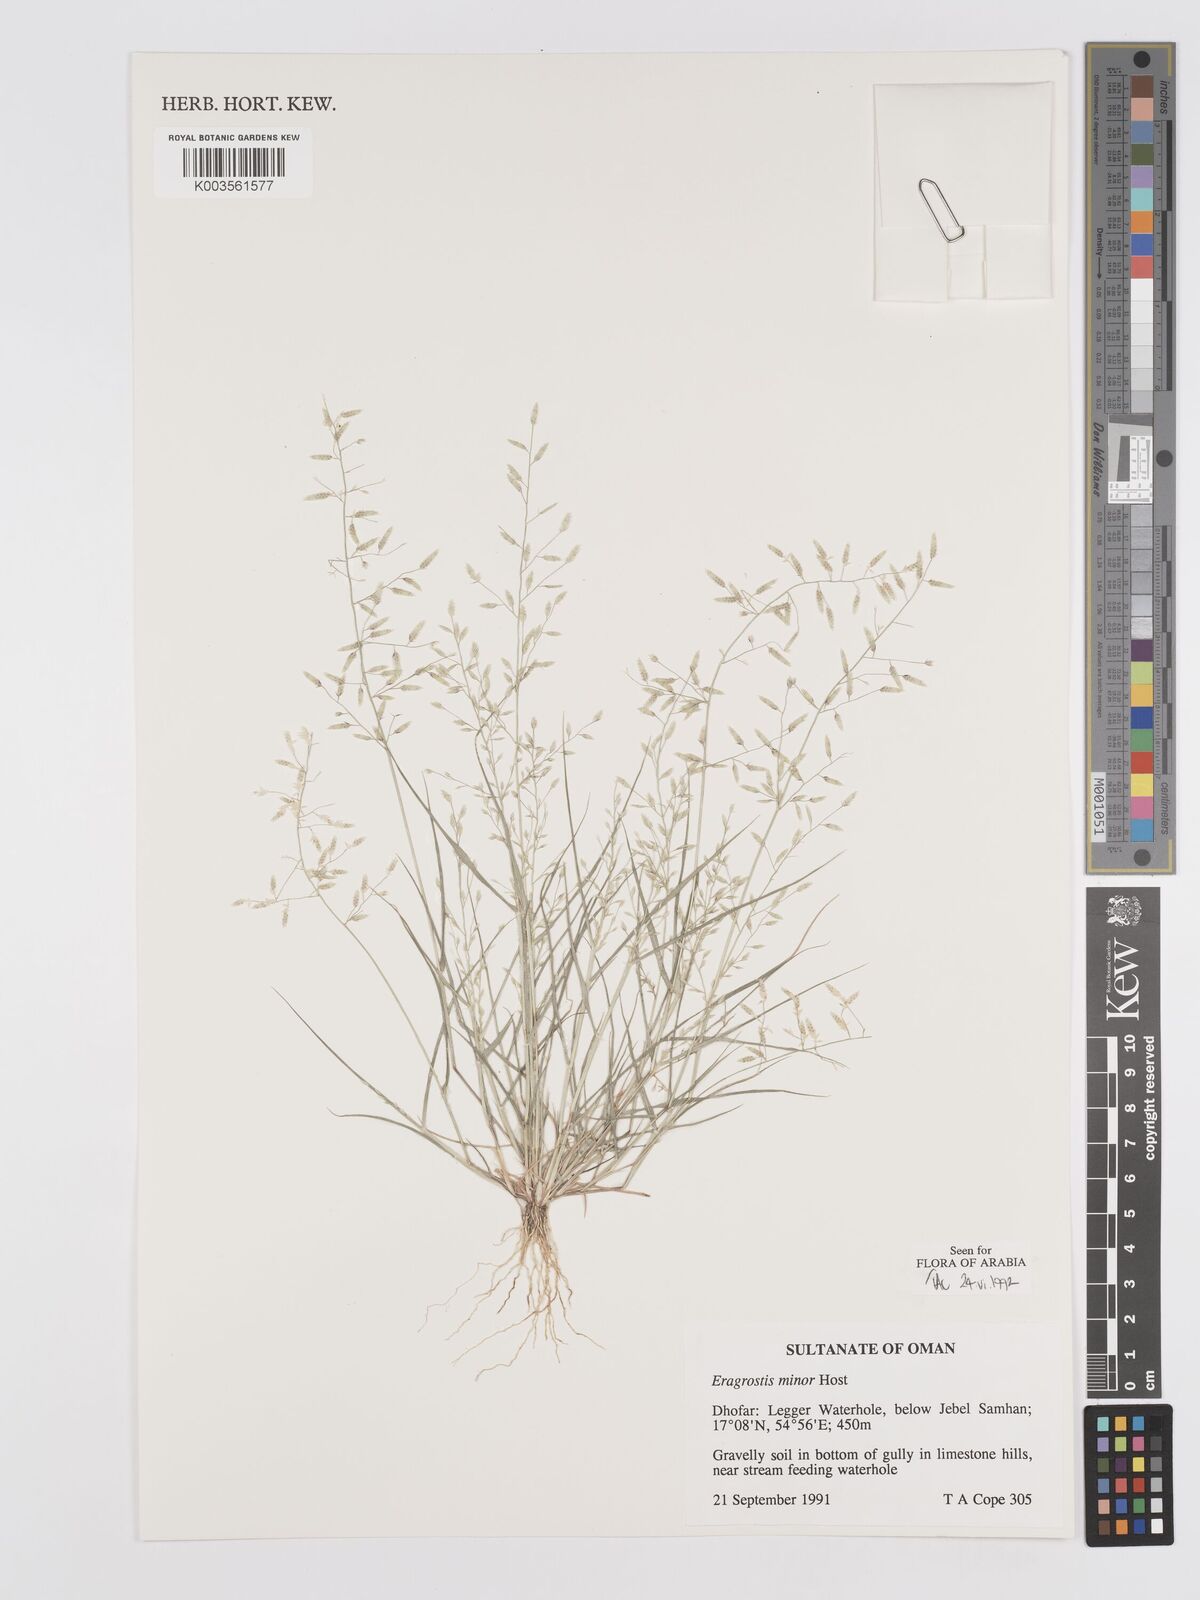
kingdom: Plantae
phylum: Tracheophyta
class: Liliopsida
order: Poales
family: Poaceae
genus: Eragrostis
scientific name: Eragrostis minor
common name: Small love-grass
